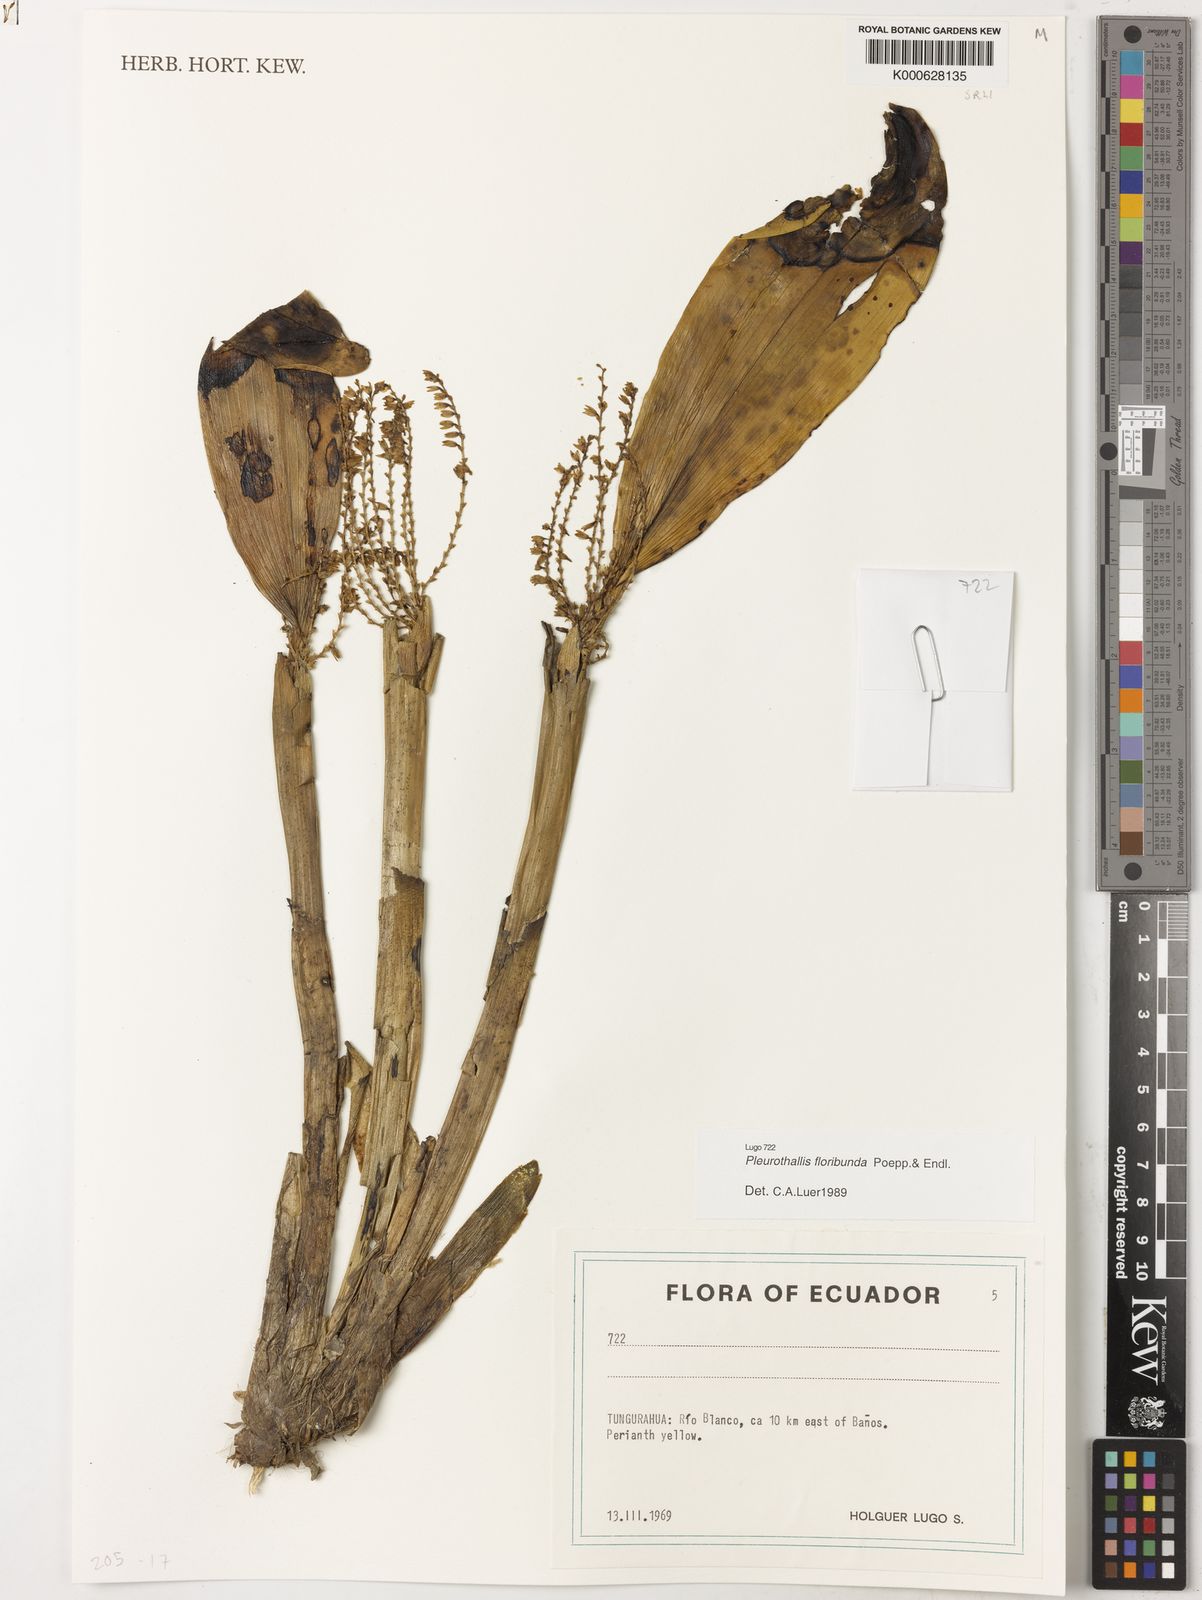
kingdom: Plantae
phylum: Tracheophyta
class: Liliopsida
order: Asparagales
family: Orchidaceae
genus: Pleurothallis
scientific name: Pleurothallis
